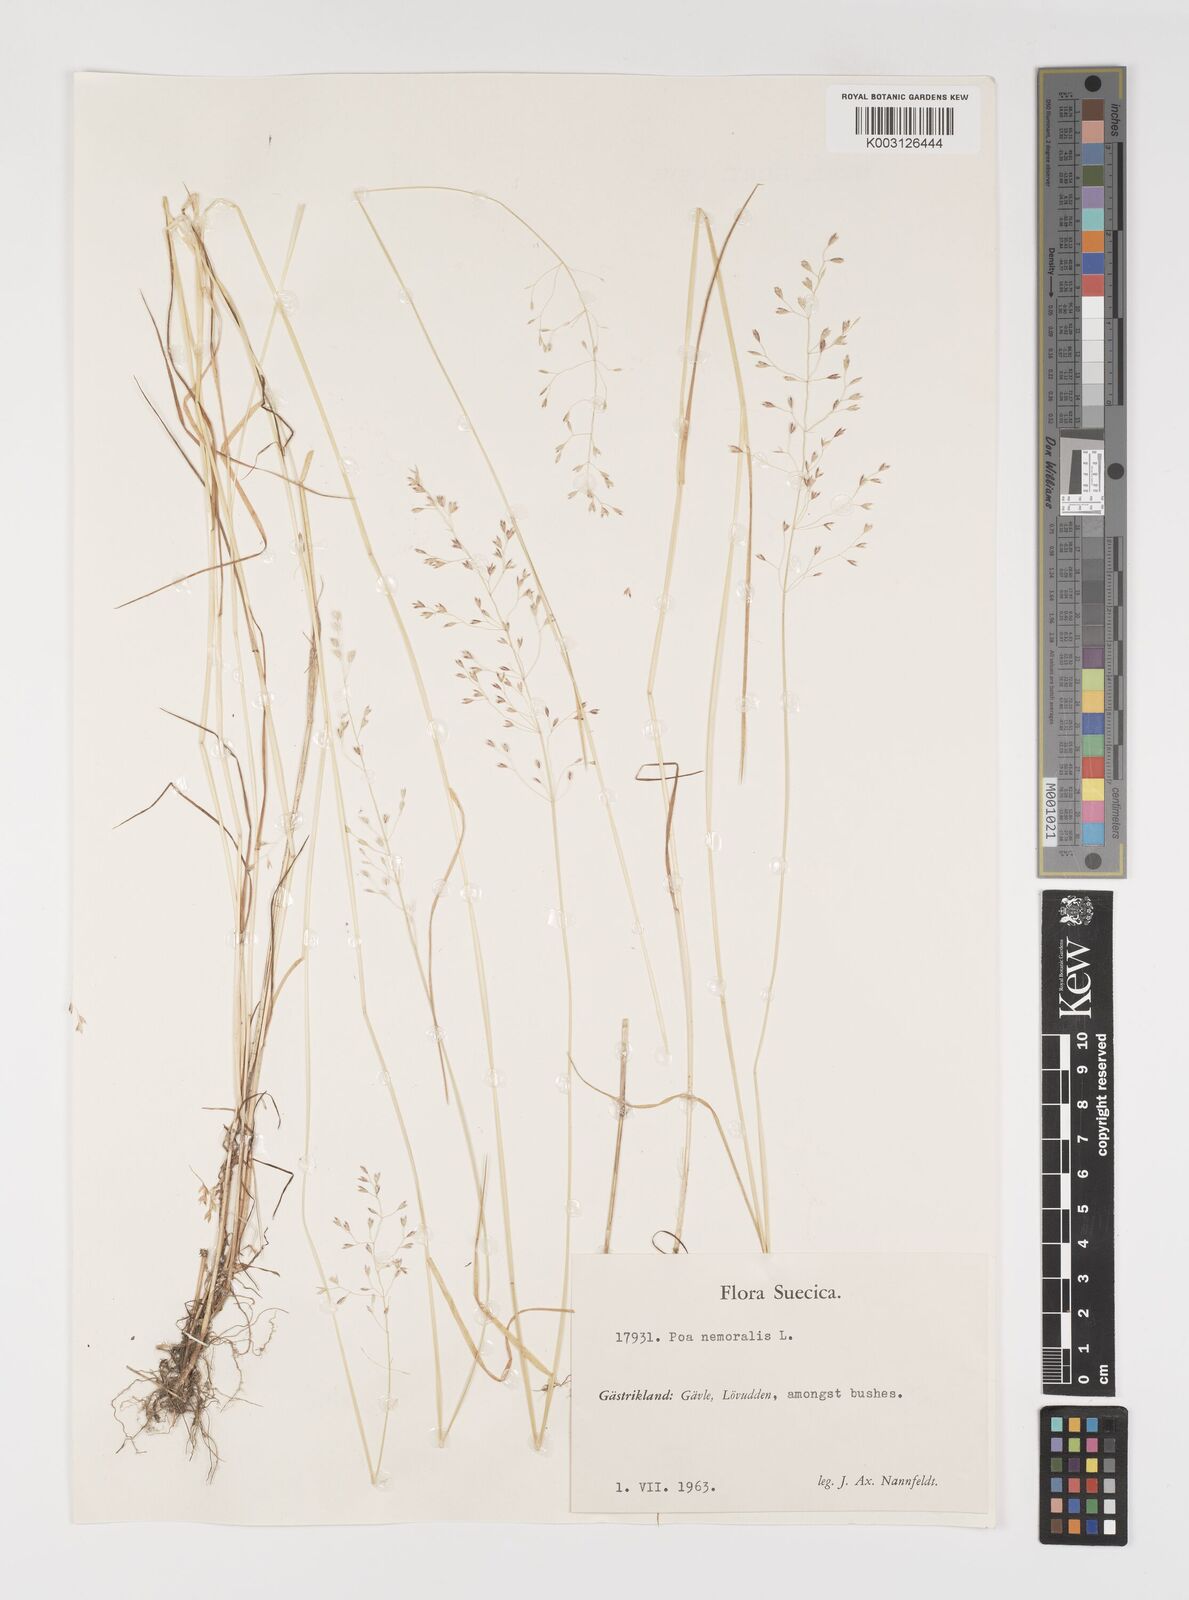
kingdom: Plantae
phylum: Tracheophyta
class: Liliopsida
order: Poales
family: Poaceae
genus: Poa
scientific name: Poa nemoralis
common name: Wood bluegrass
